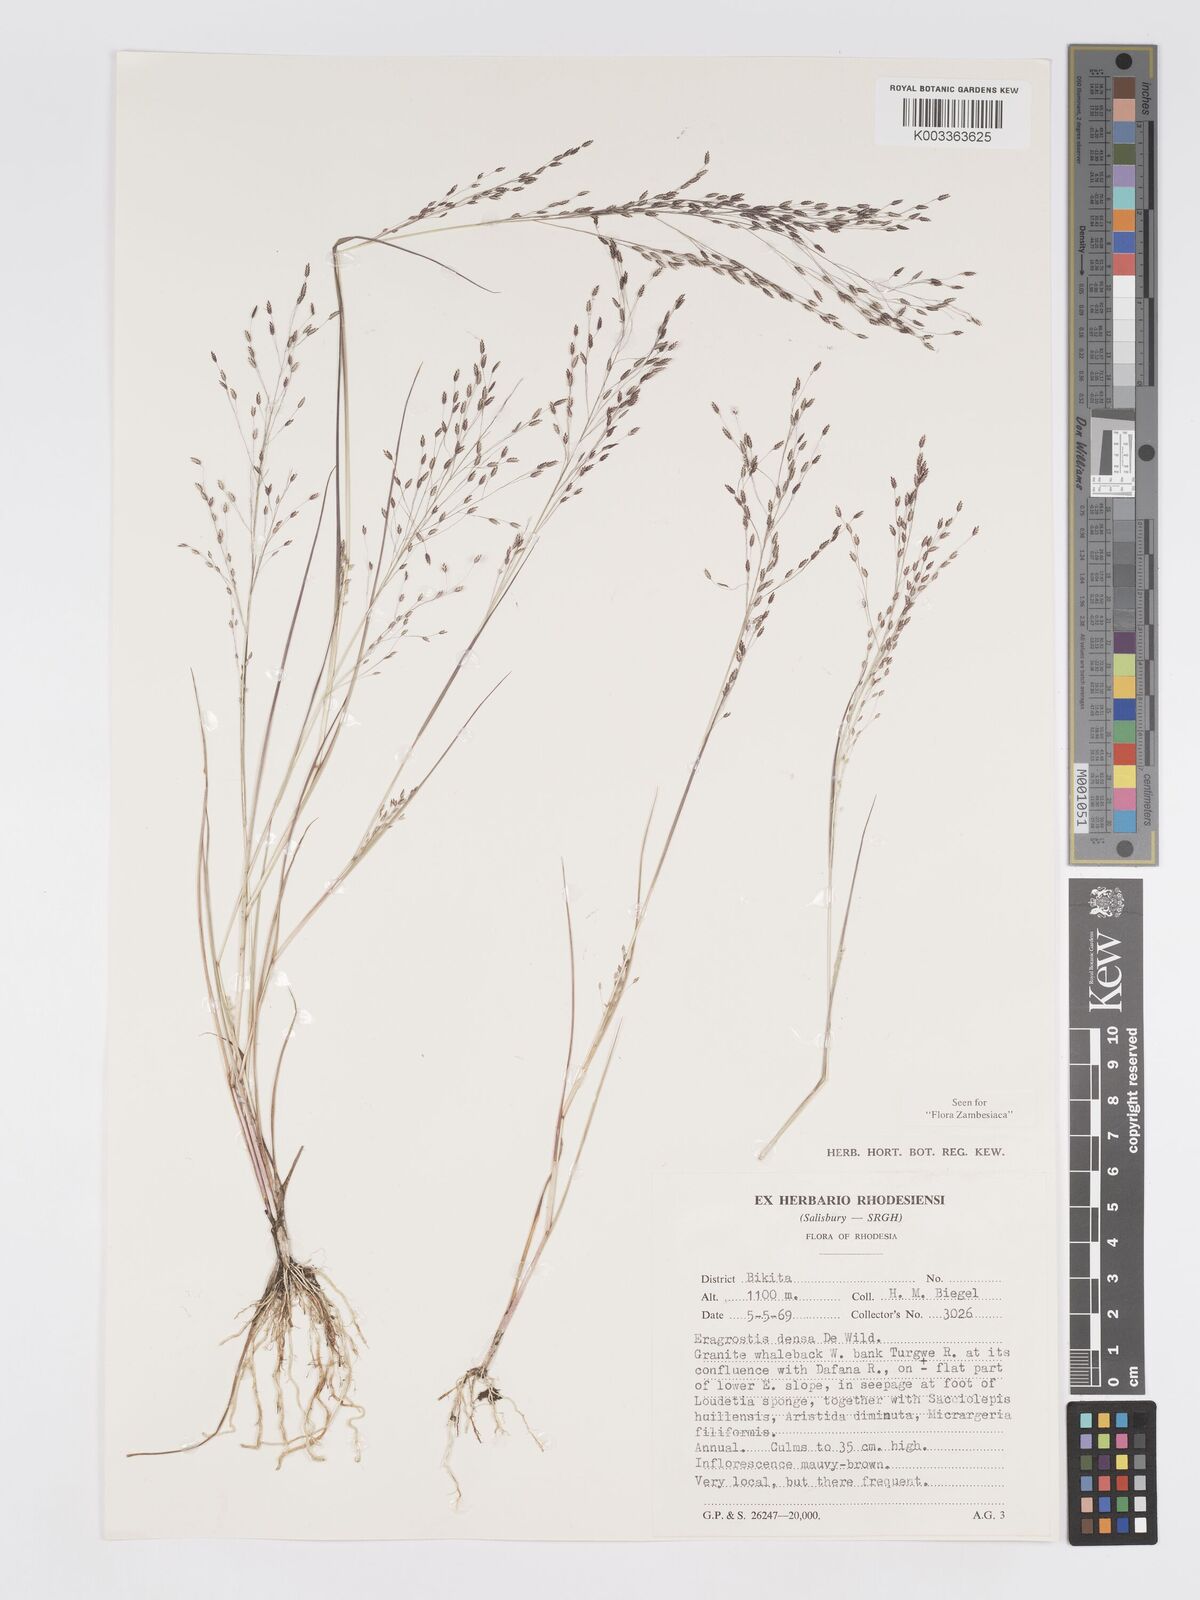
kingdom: Plantae
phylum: Tracheophyta
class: Liliopsida
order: Poales
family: Poaceae
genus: Eragrostis
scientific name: Eragrostis welwitschii
